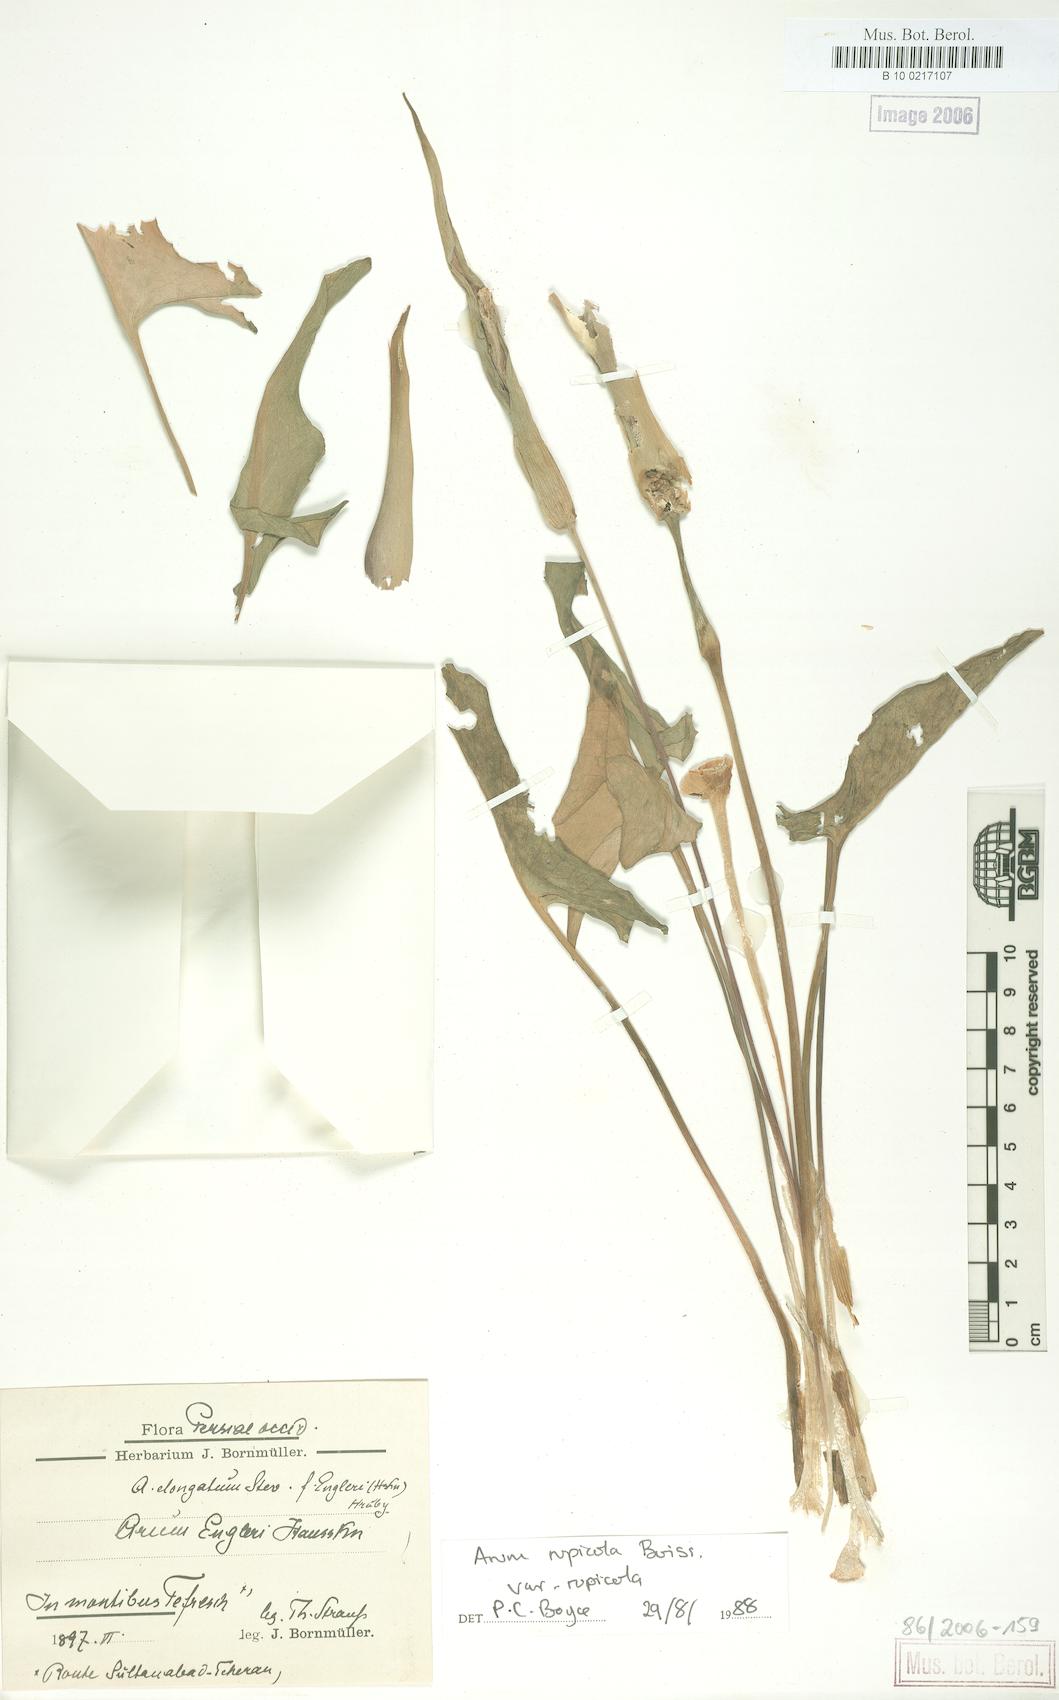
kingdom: Plantae
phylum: Tracheophyta
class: Liliopsida
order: Alismatales
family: Araceae
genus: Arum
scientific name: Arum rupicola
